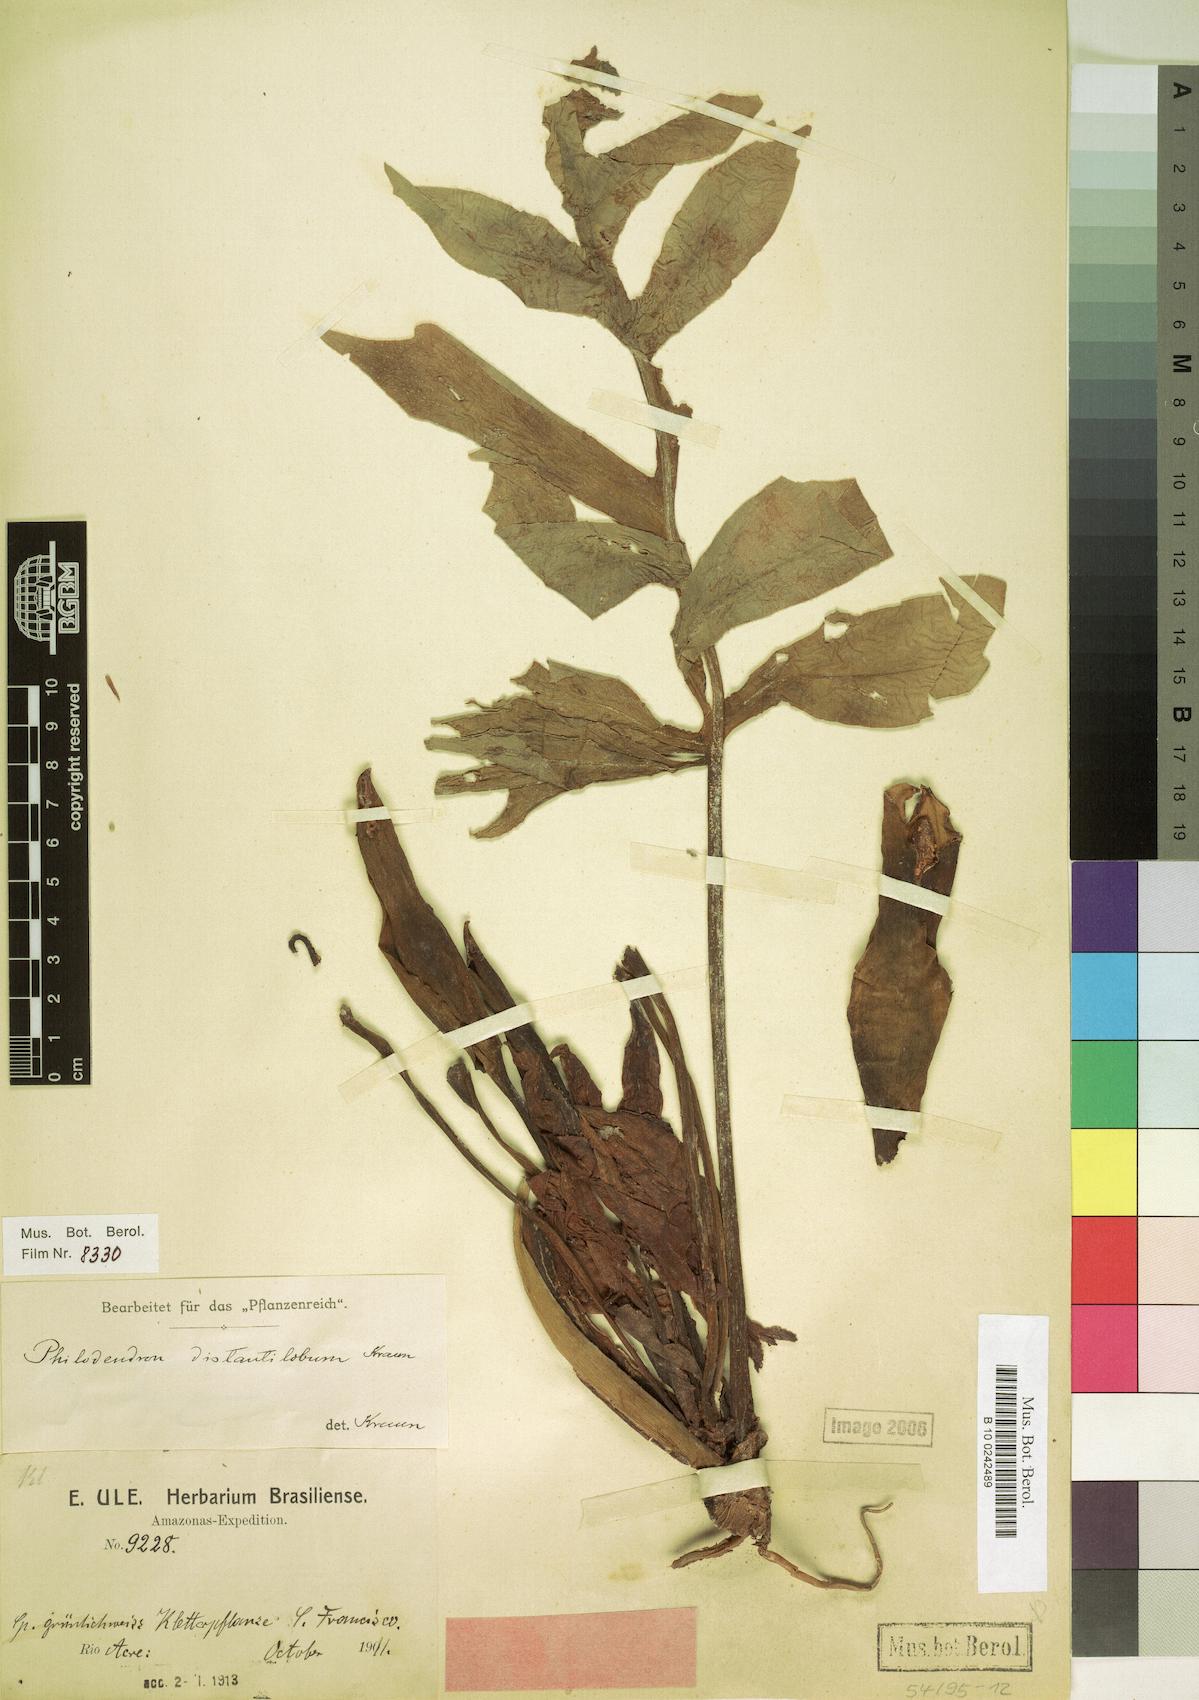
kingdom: Plantae
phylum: Tracheophyta
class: Liliopsida
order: Alismatales
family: Araceae
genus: Philodendron
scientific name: Philodendron distantilobum
